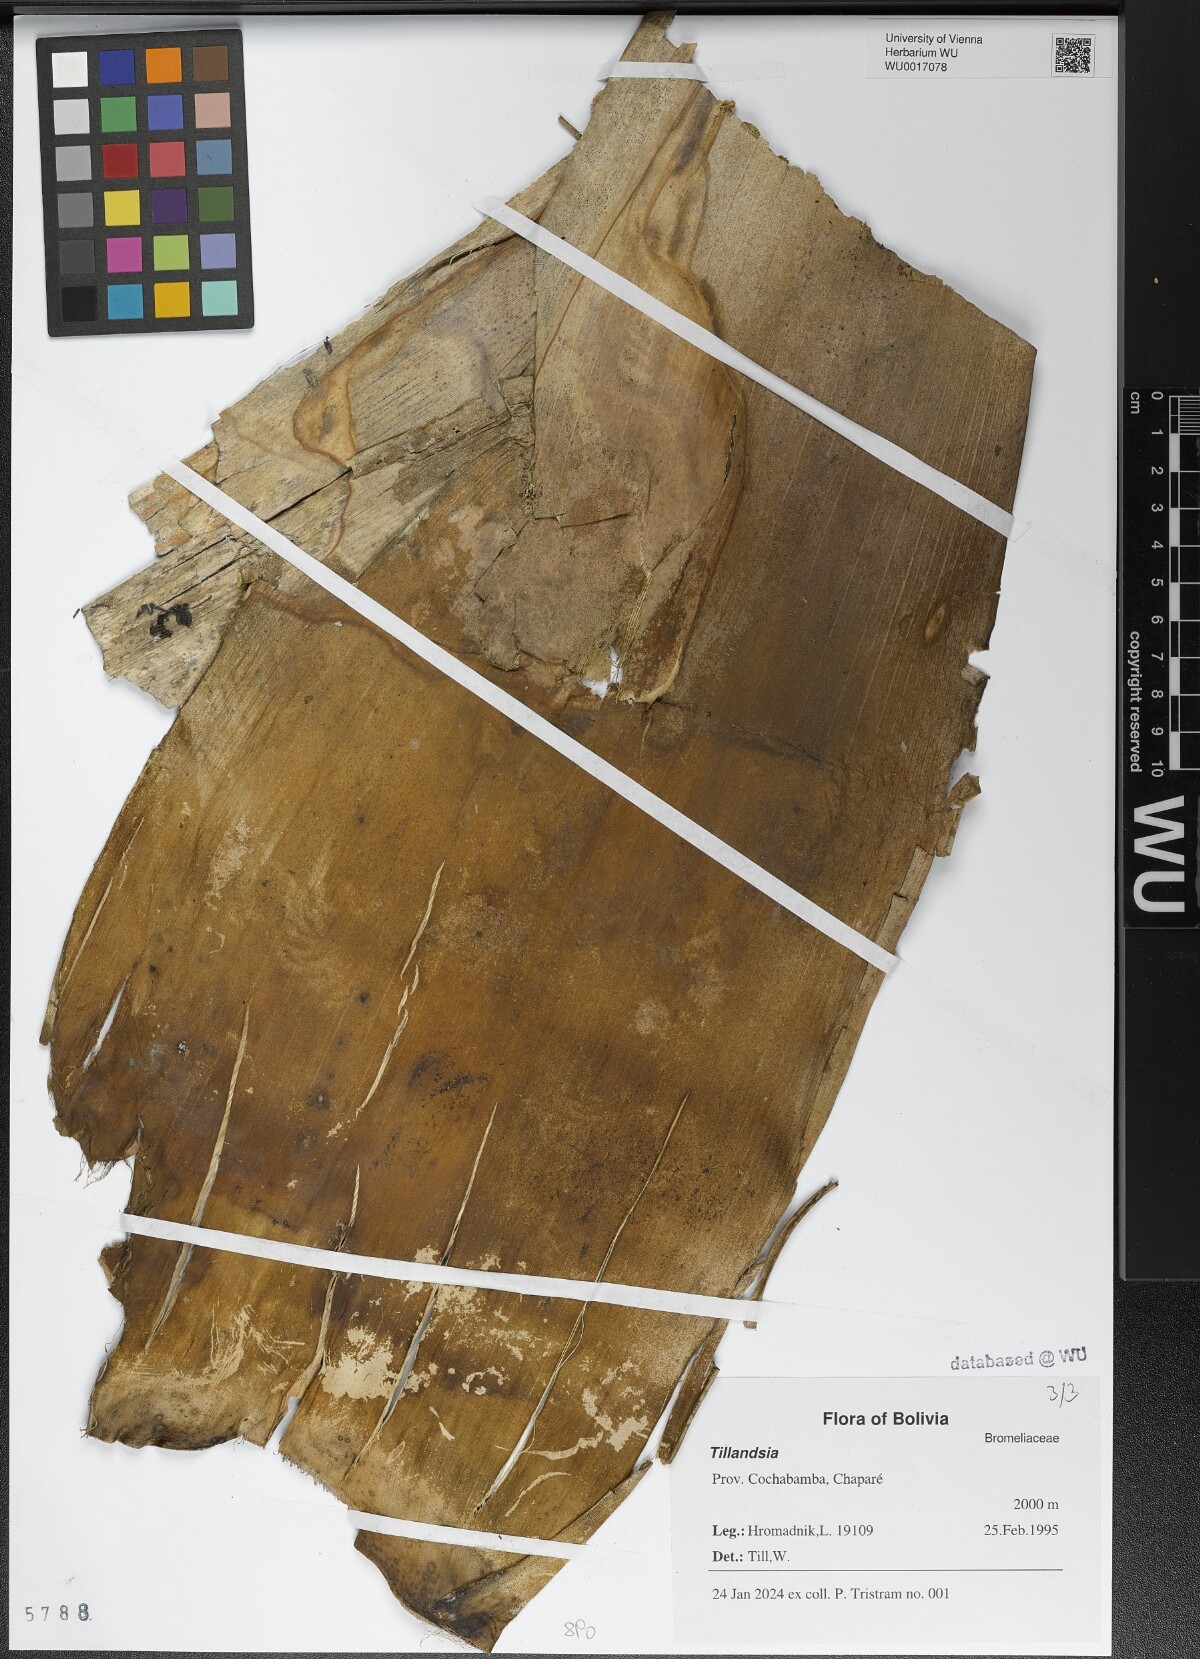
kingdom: Plantae
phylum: Tracheophyta
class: Liliopsida
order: Poales
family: Bromeliaceae
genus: Tillandsia
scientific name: Tillandsia
